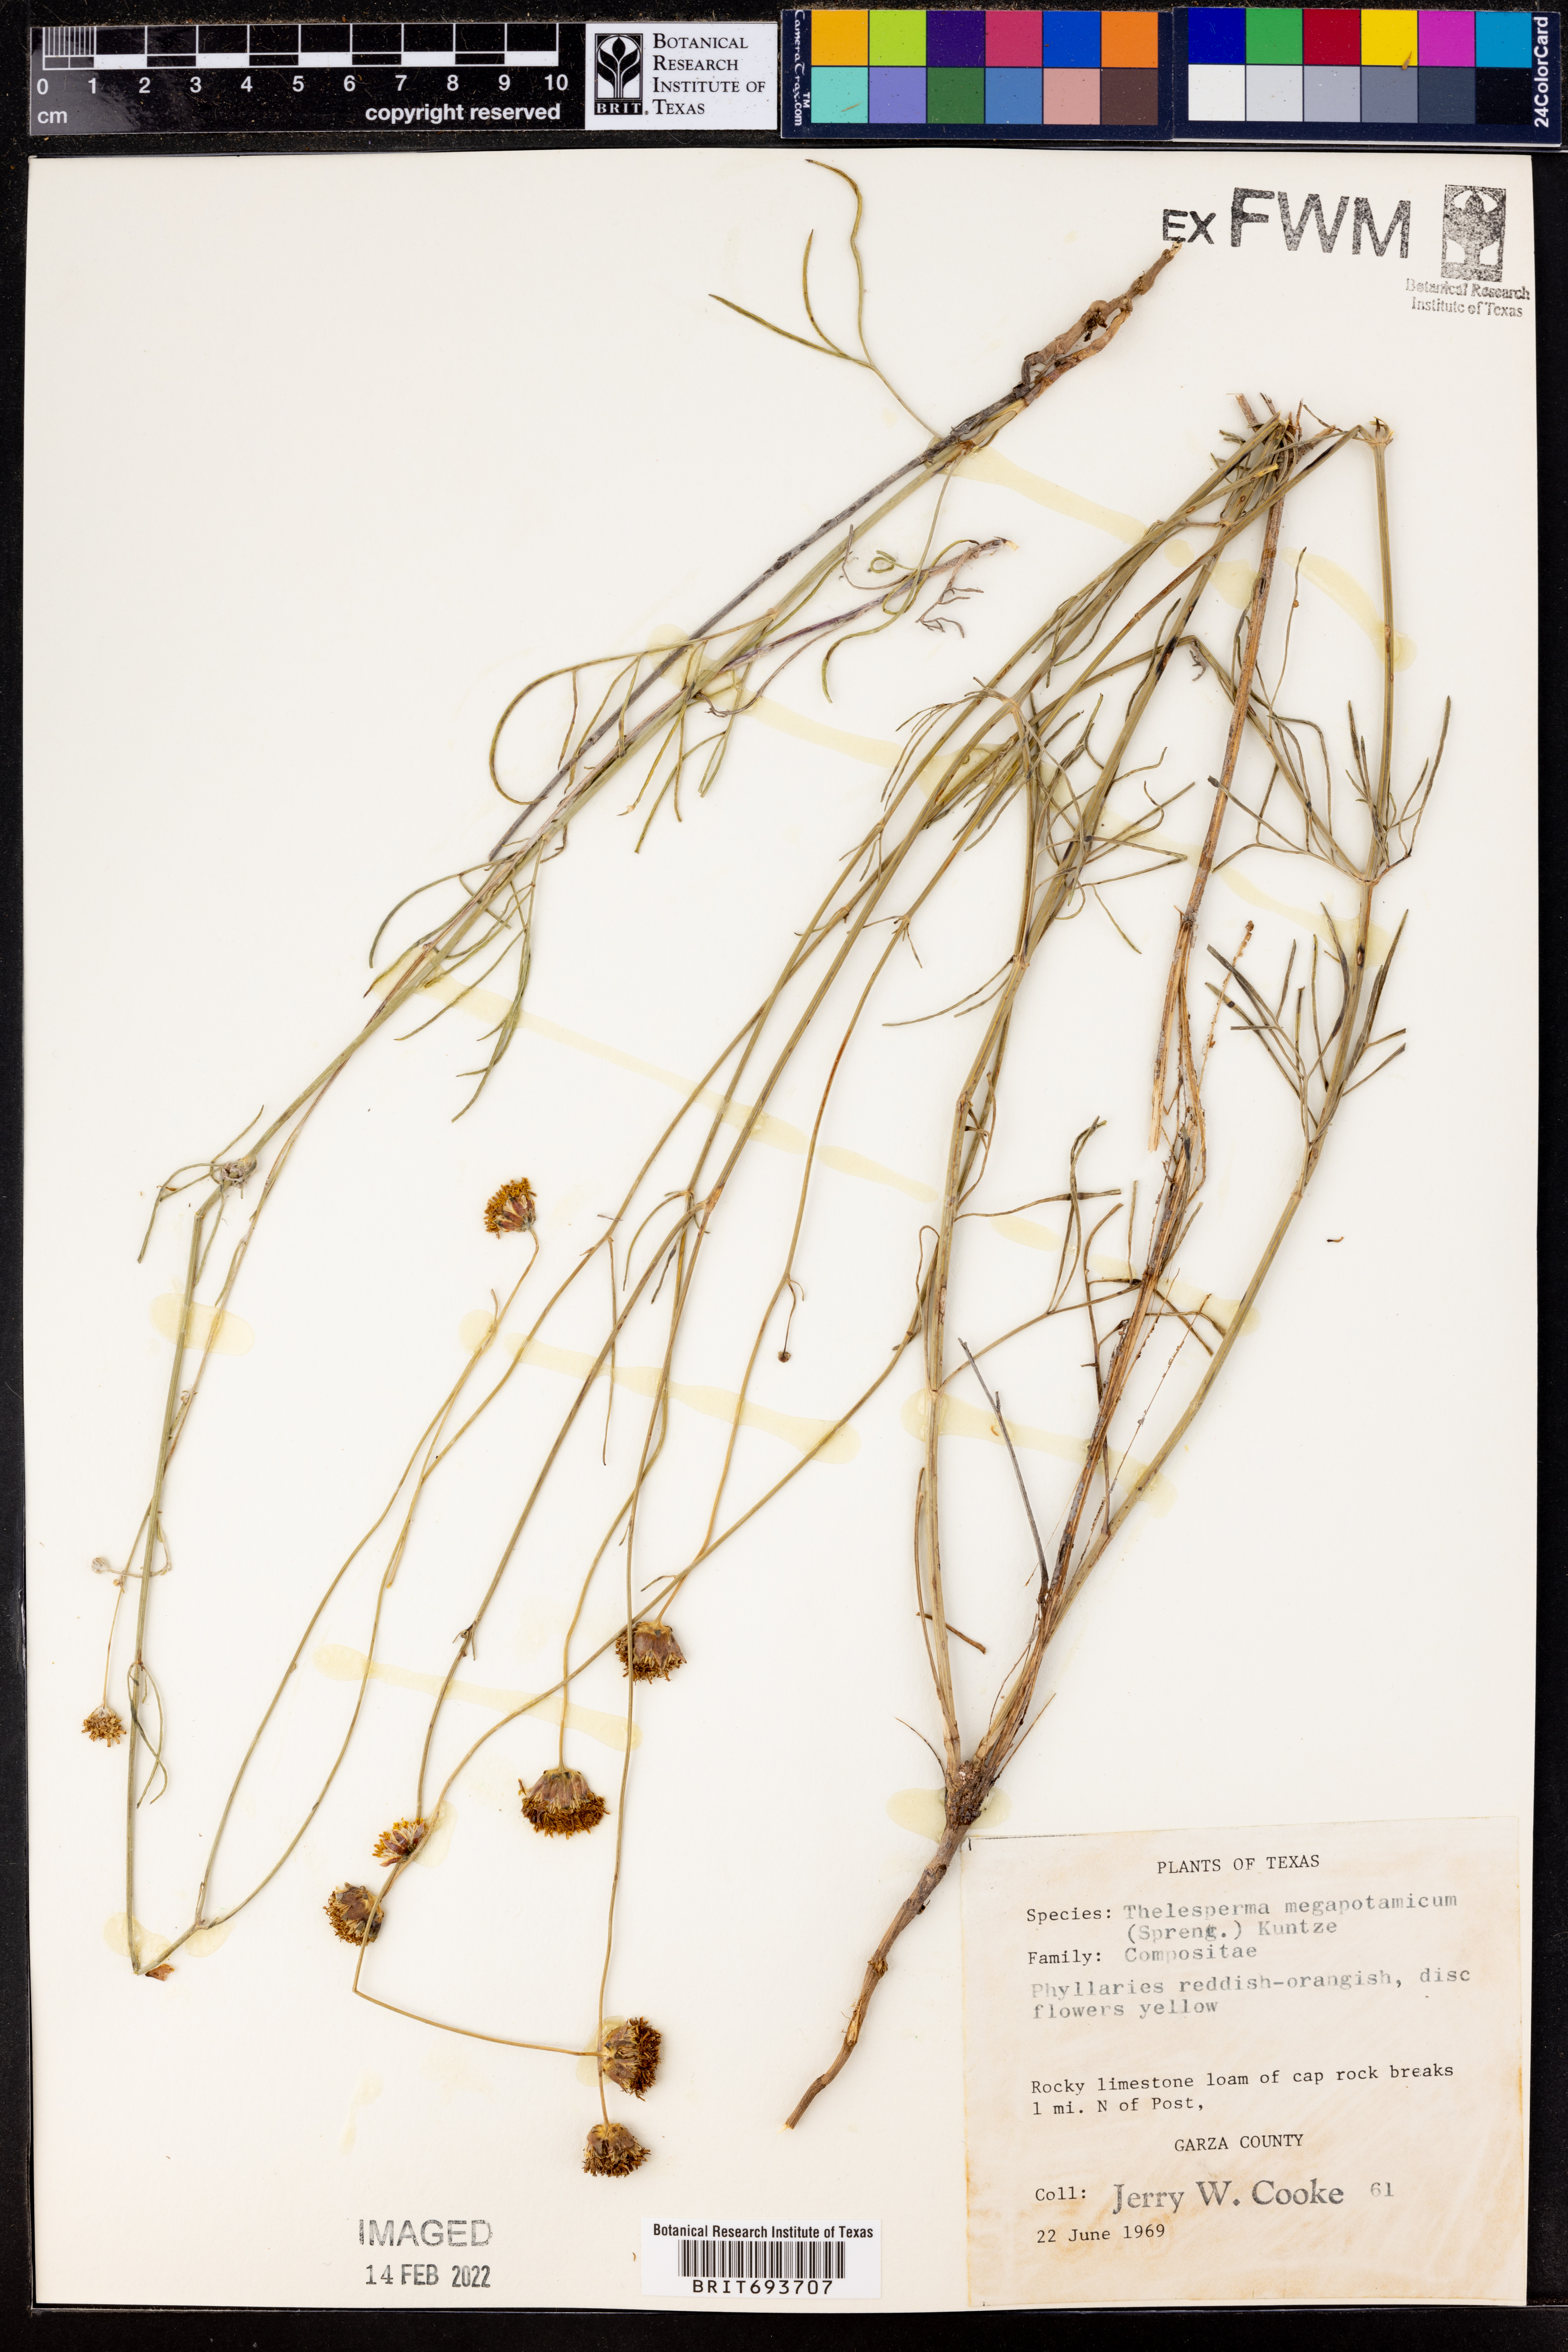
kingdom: Plantae
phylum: Tracheophyta
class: Magnoliopsida
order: Asterales
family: Asteraceae
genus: Thelesperma
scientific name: Thelesperma megapotamicum
